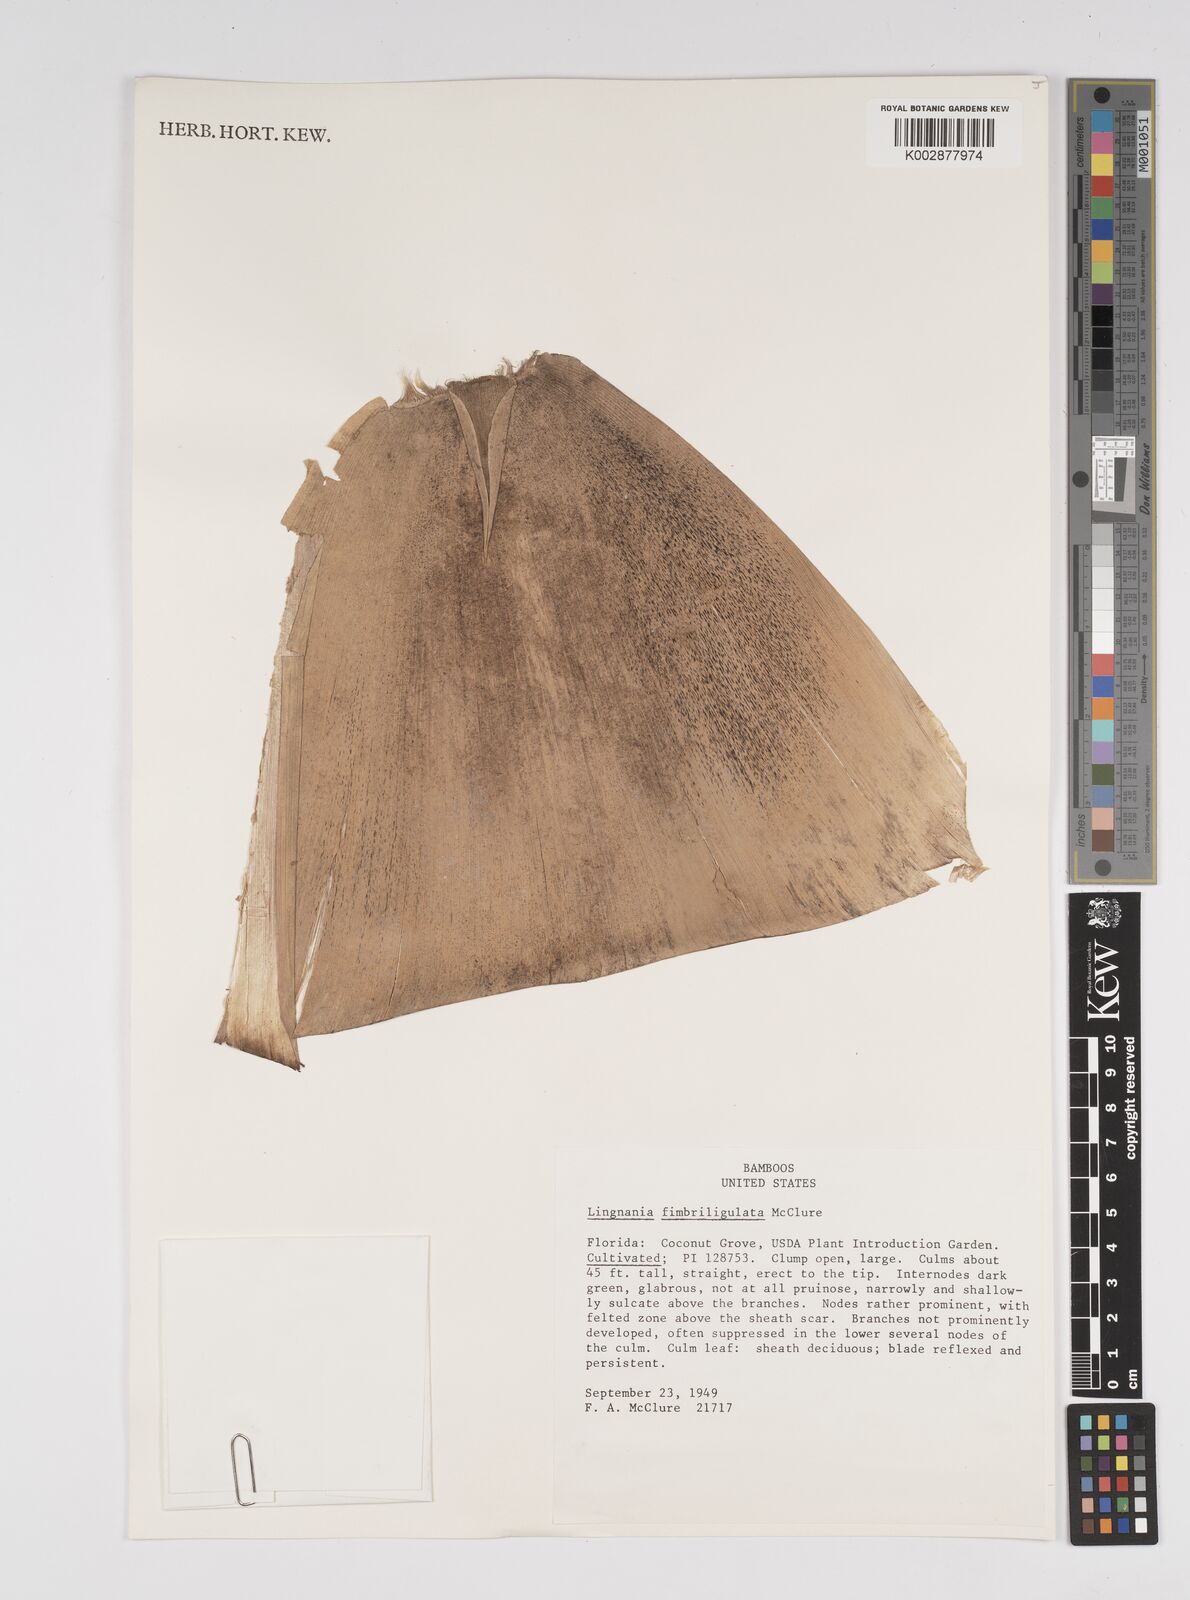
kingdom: Plantae
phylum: Tracheophyta
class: Liliopsida
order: Poales
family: Poaceae
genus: Bambusa
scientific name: Bambusa fimbriligulata
